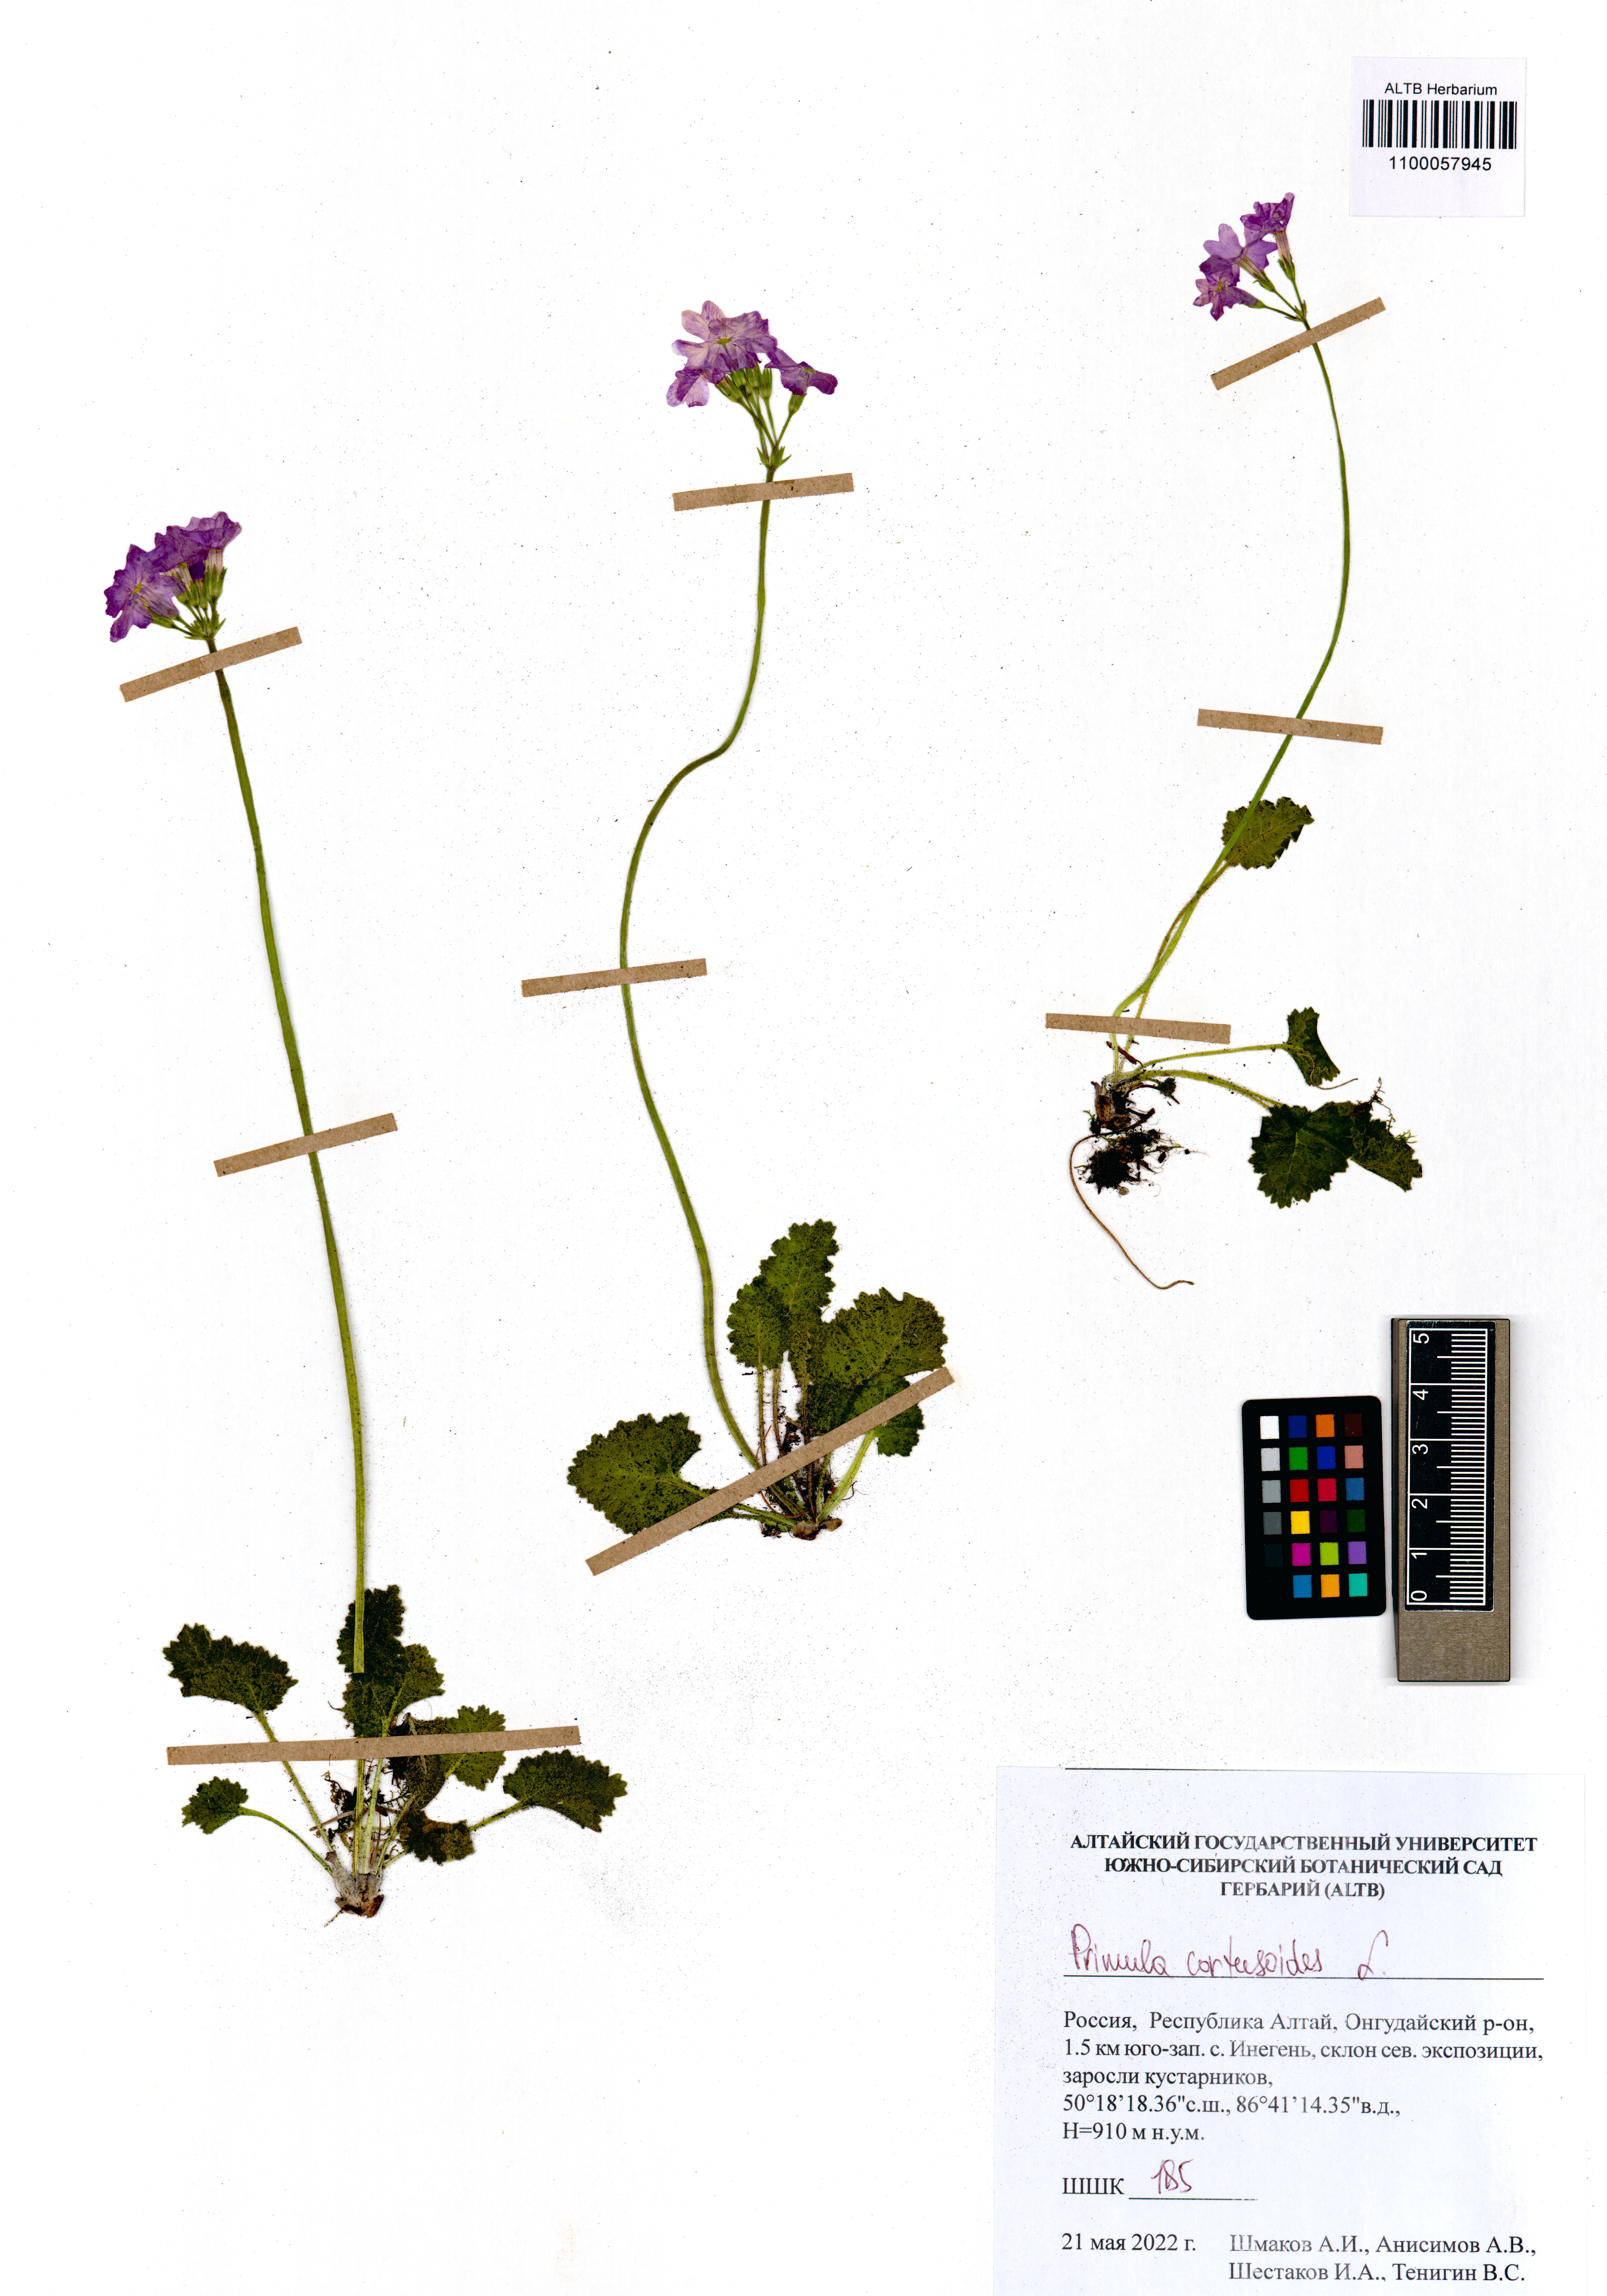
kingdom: Plantae
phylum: Tracheophyta
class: Magnoliopsida
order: Ericales
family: Primulaceae
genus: Primula
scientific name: Primula cortusoides
